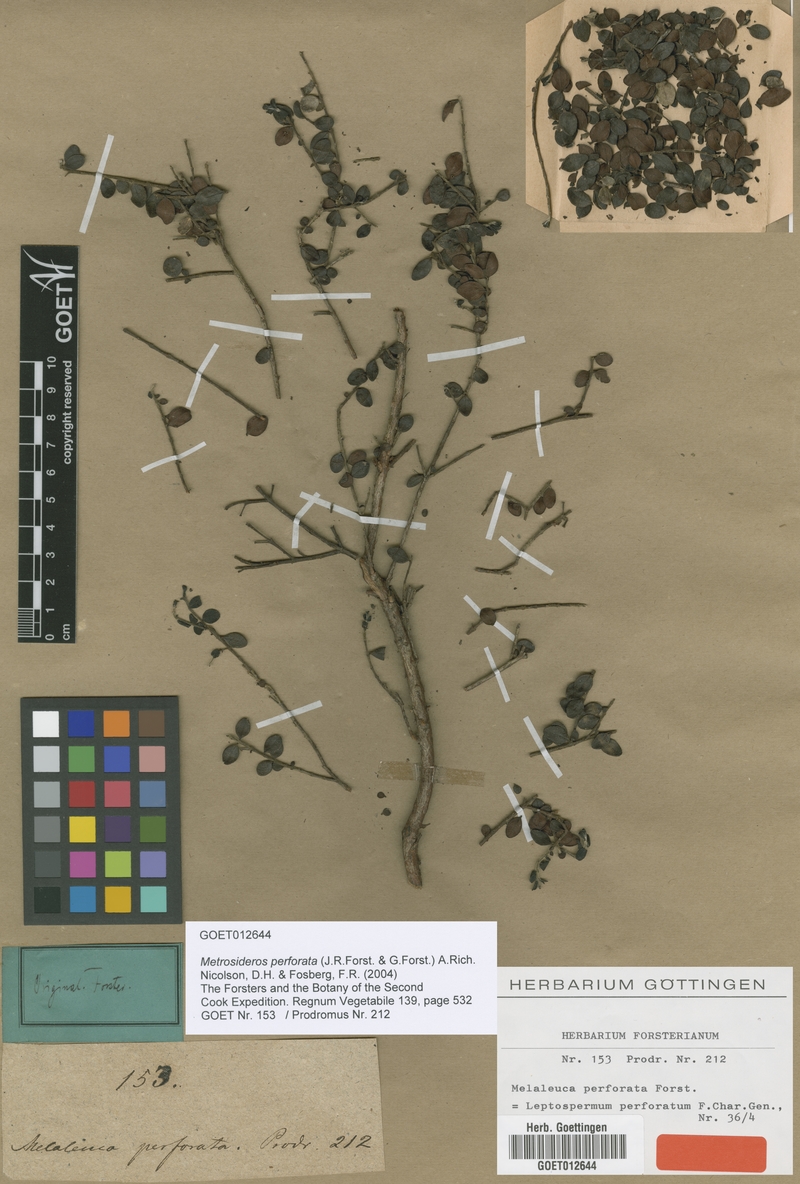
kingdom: Plantae
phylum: Tracheophyta
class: Magnoliopsida
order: Myrtales
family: Myrtaceae
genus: Metrosideros
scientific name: Metrosideros perforata
